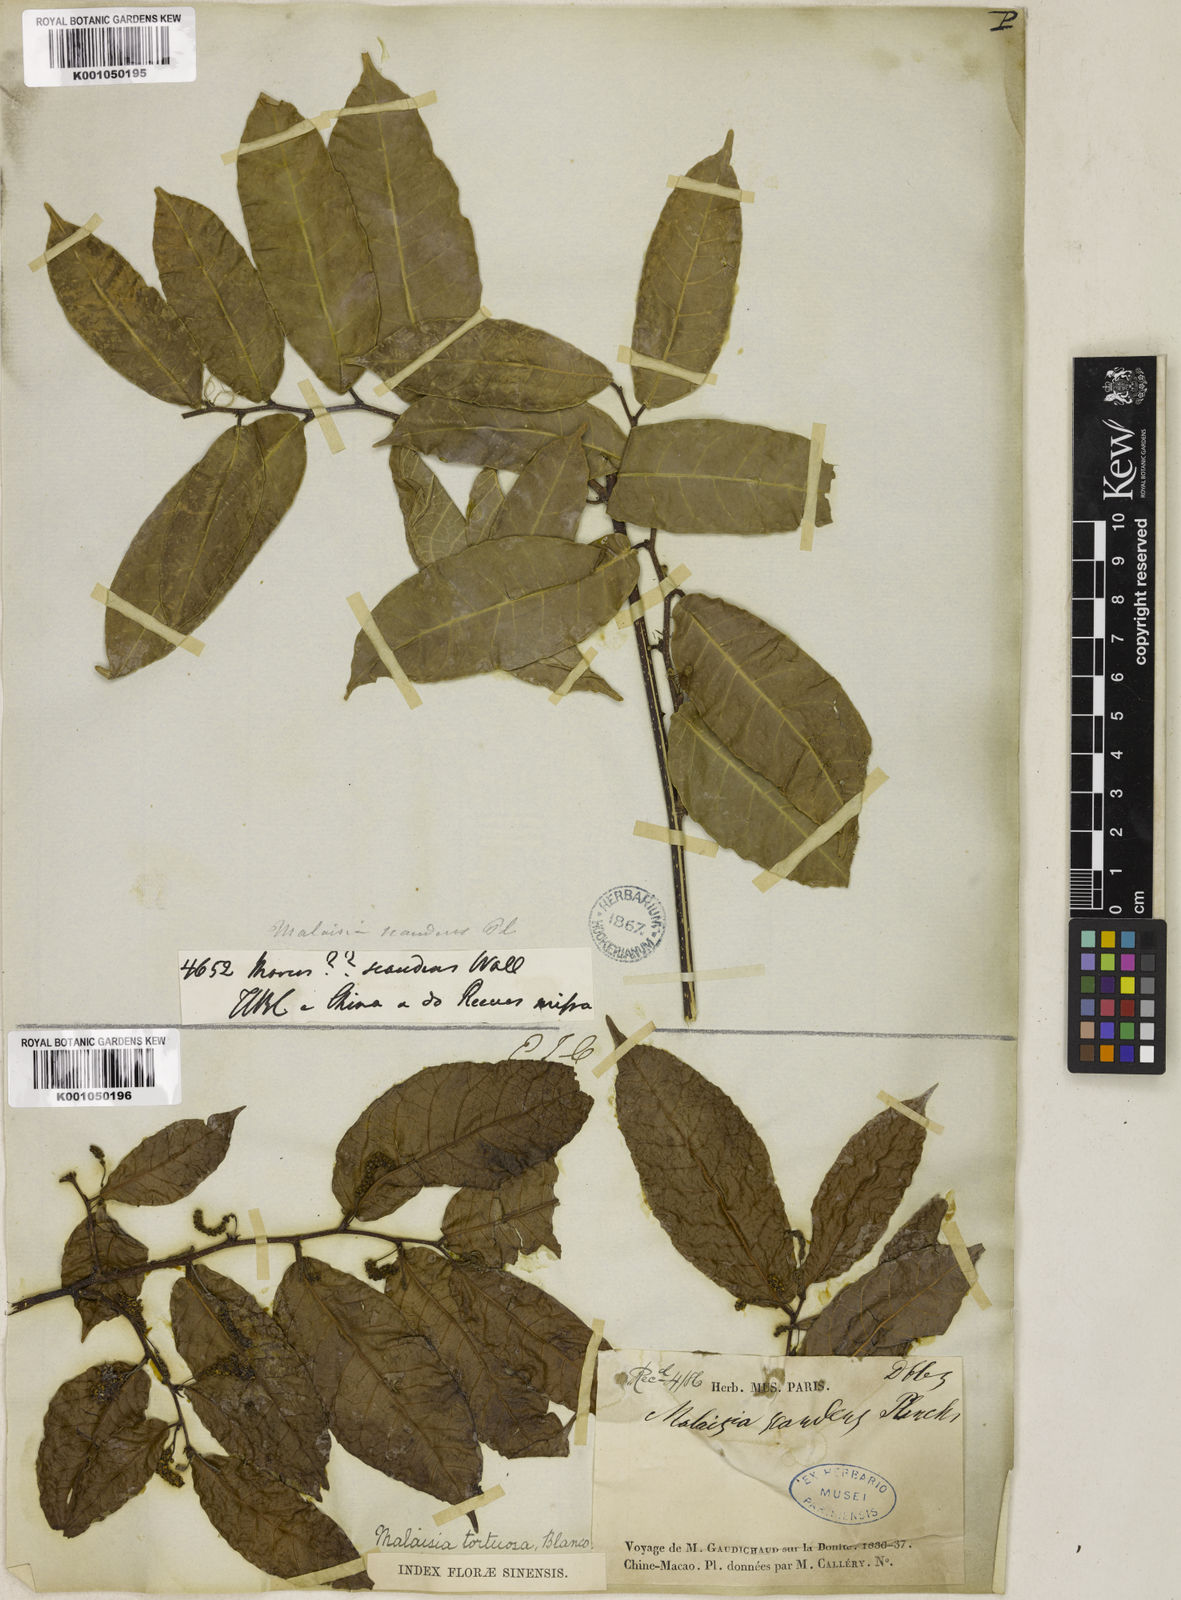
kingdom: Plantae
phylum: Tracheophyta
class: Magnoliopsida
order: Rosales
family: Moraceae
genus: Malaisia
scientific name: Malaisia scandens
